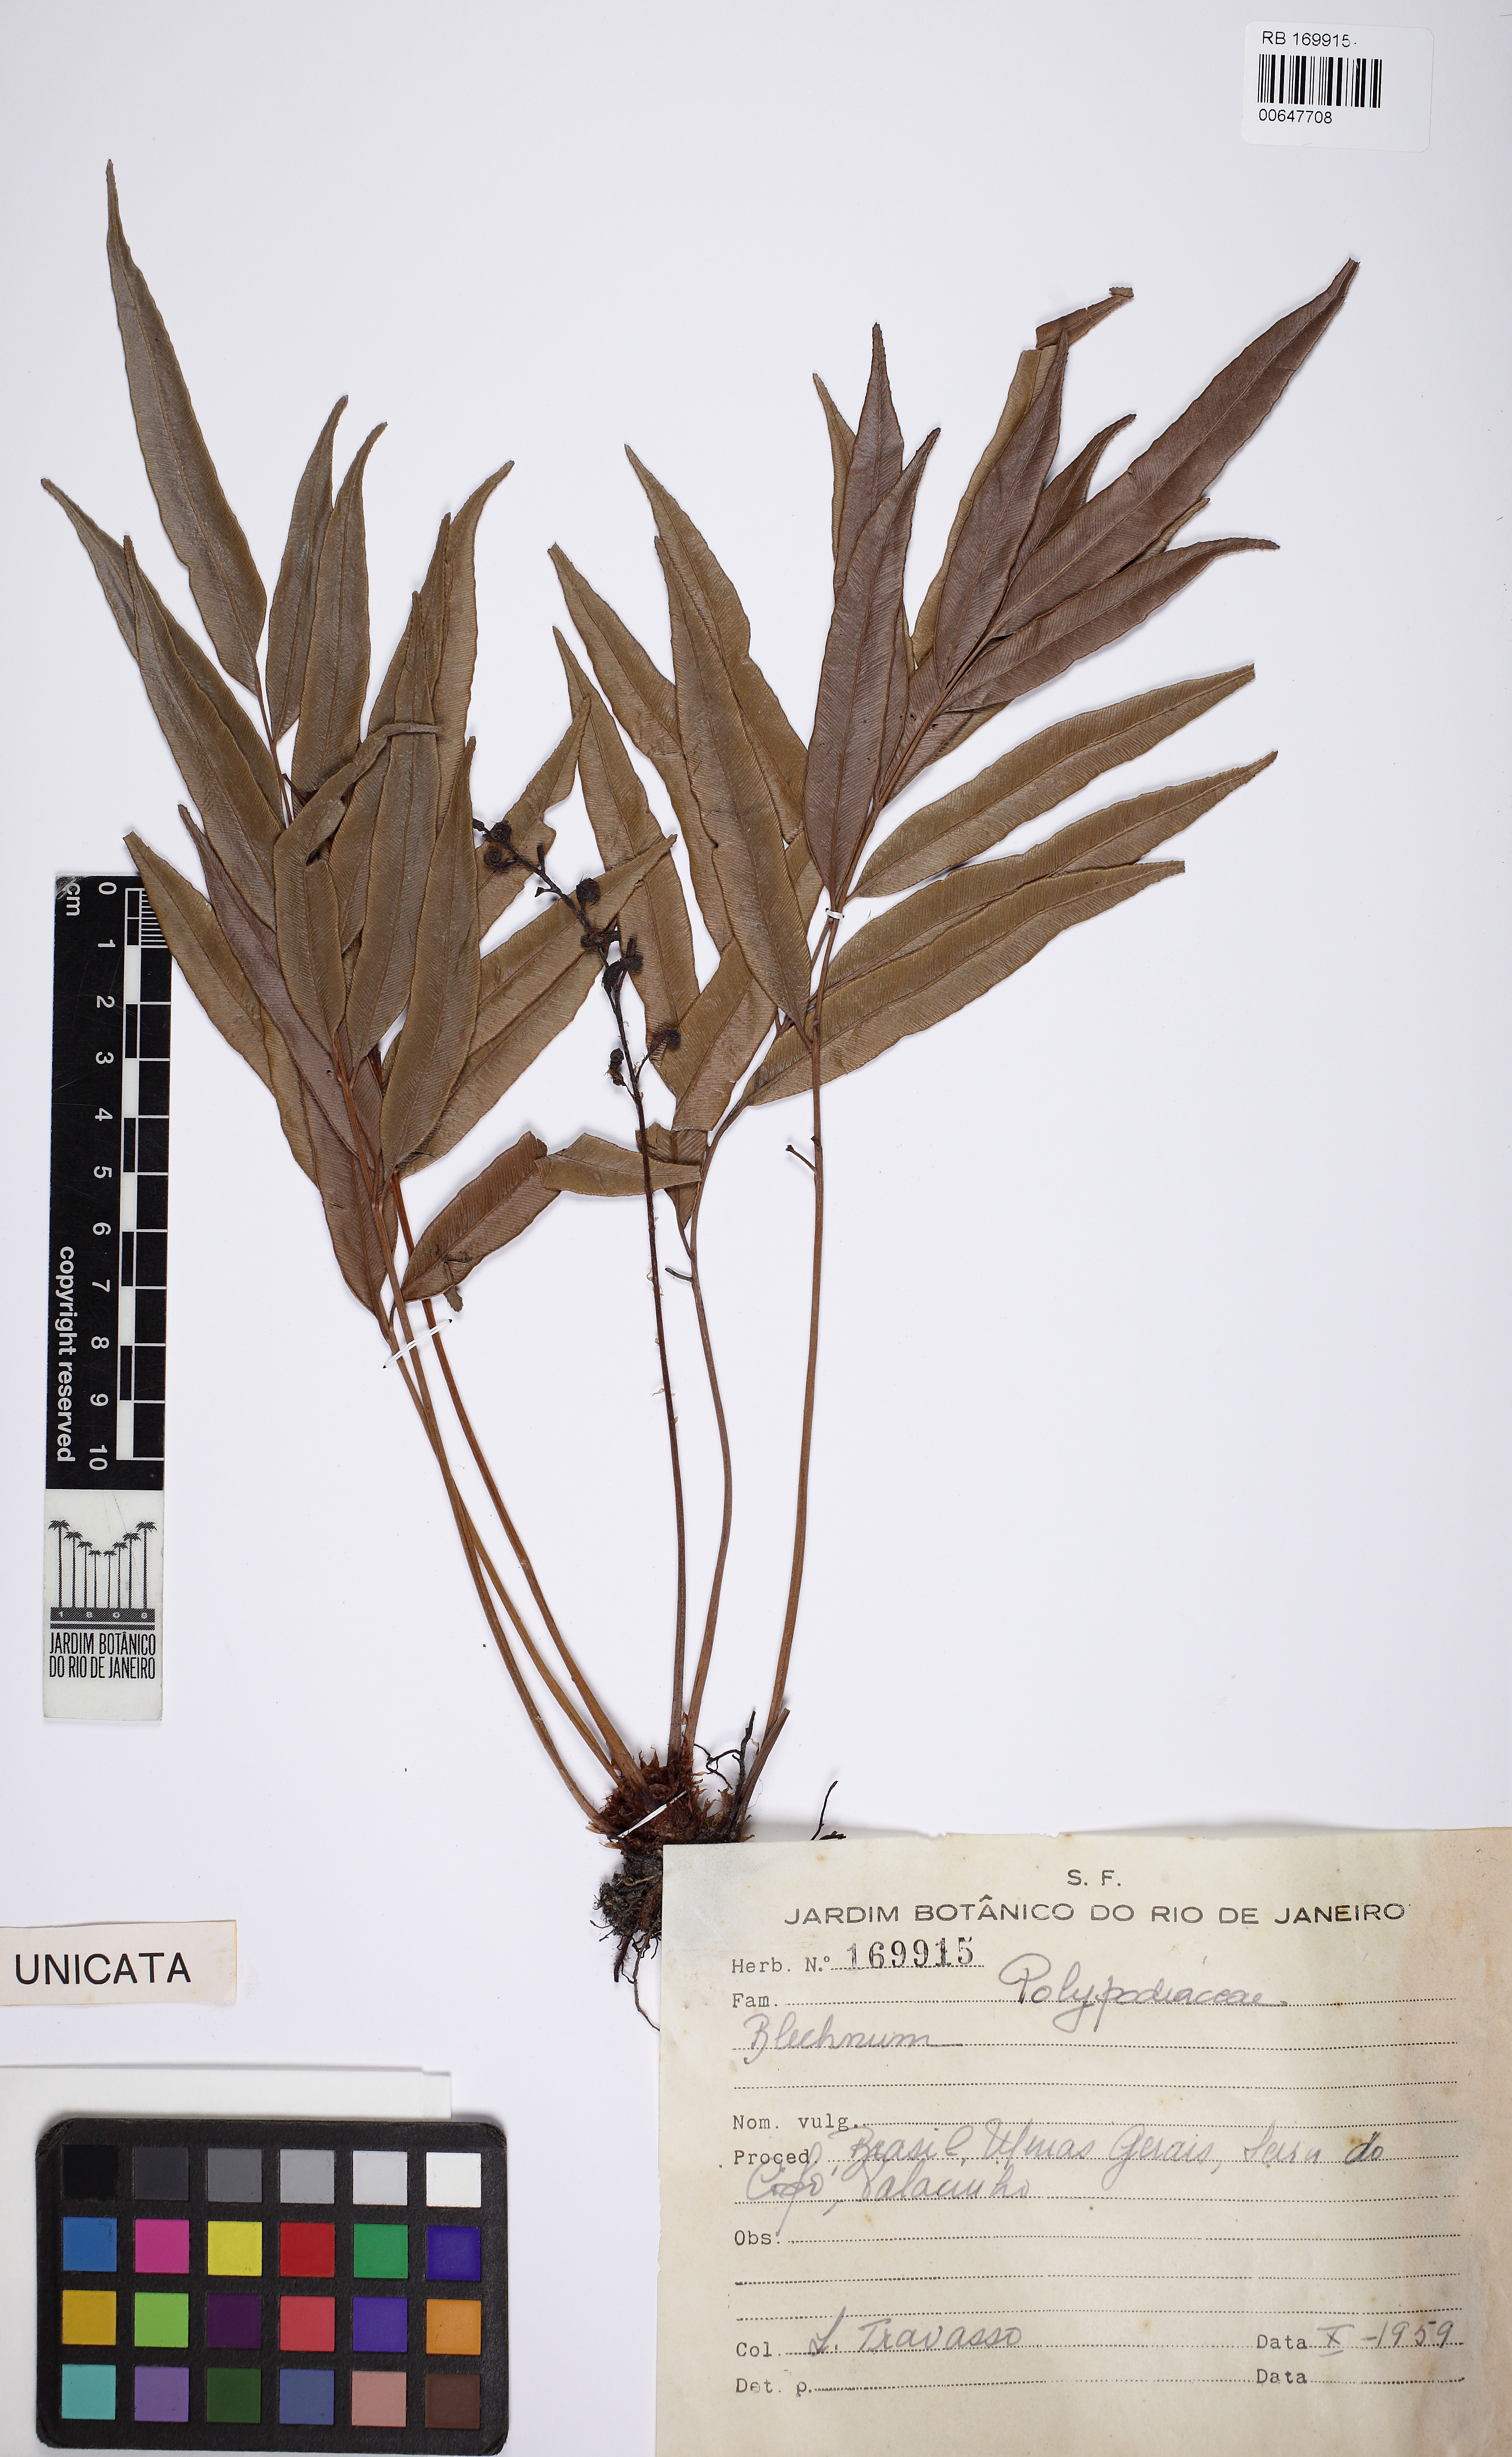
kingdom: Plantae
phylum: Tracheophyta
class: Polypodiopsida
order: Polypodiales
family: Blechnaceae
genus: Parablechnum
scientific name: Parablechnum glaziovii
